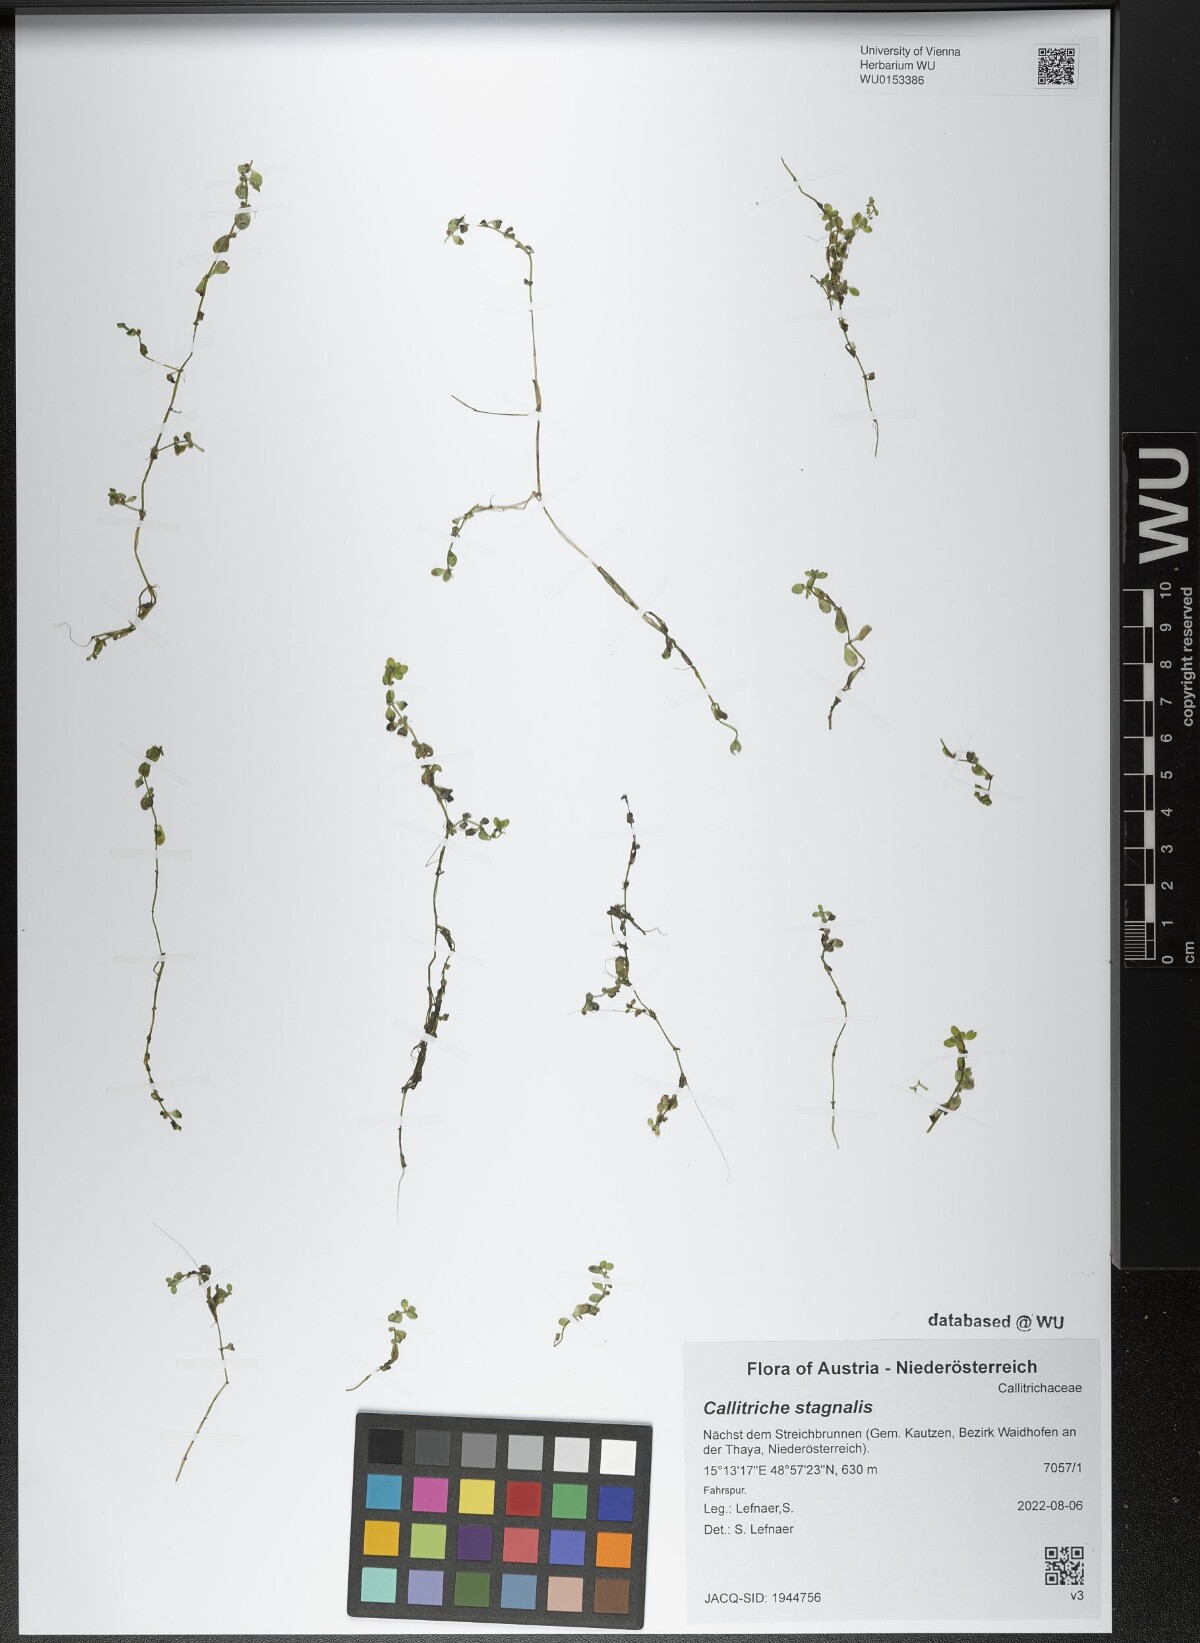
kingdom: Plantae
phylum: Tracheophyta
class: Magnoliopsida
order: Lamiales
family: Plantaginaceae
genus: Callitriche
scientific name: Callitriche stagnalis
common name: Common water-starwort
